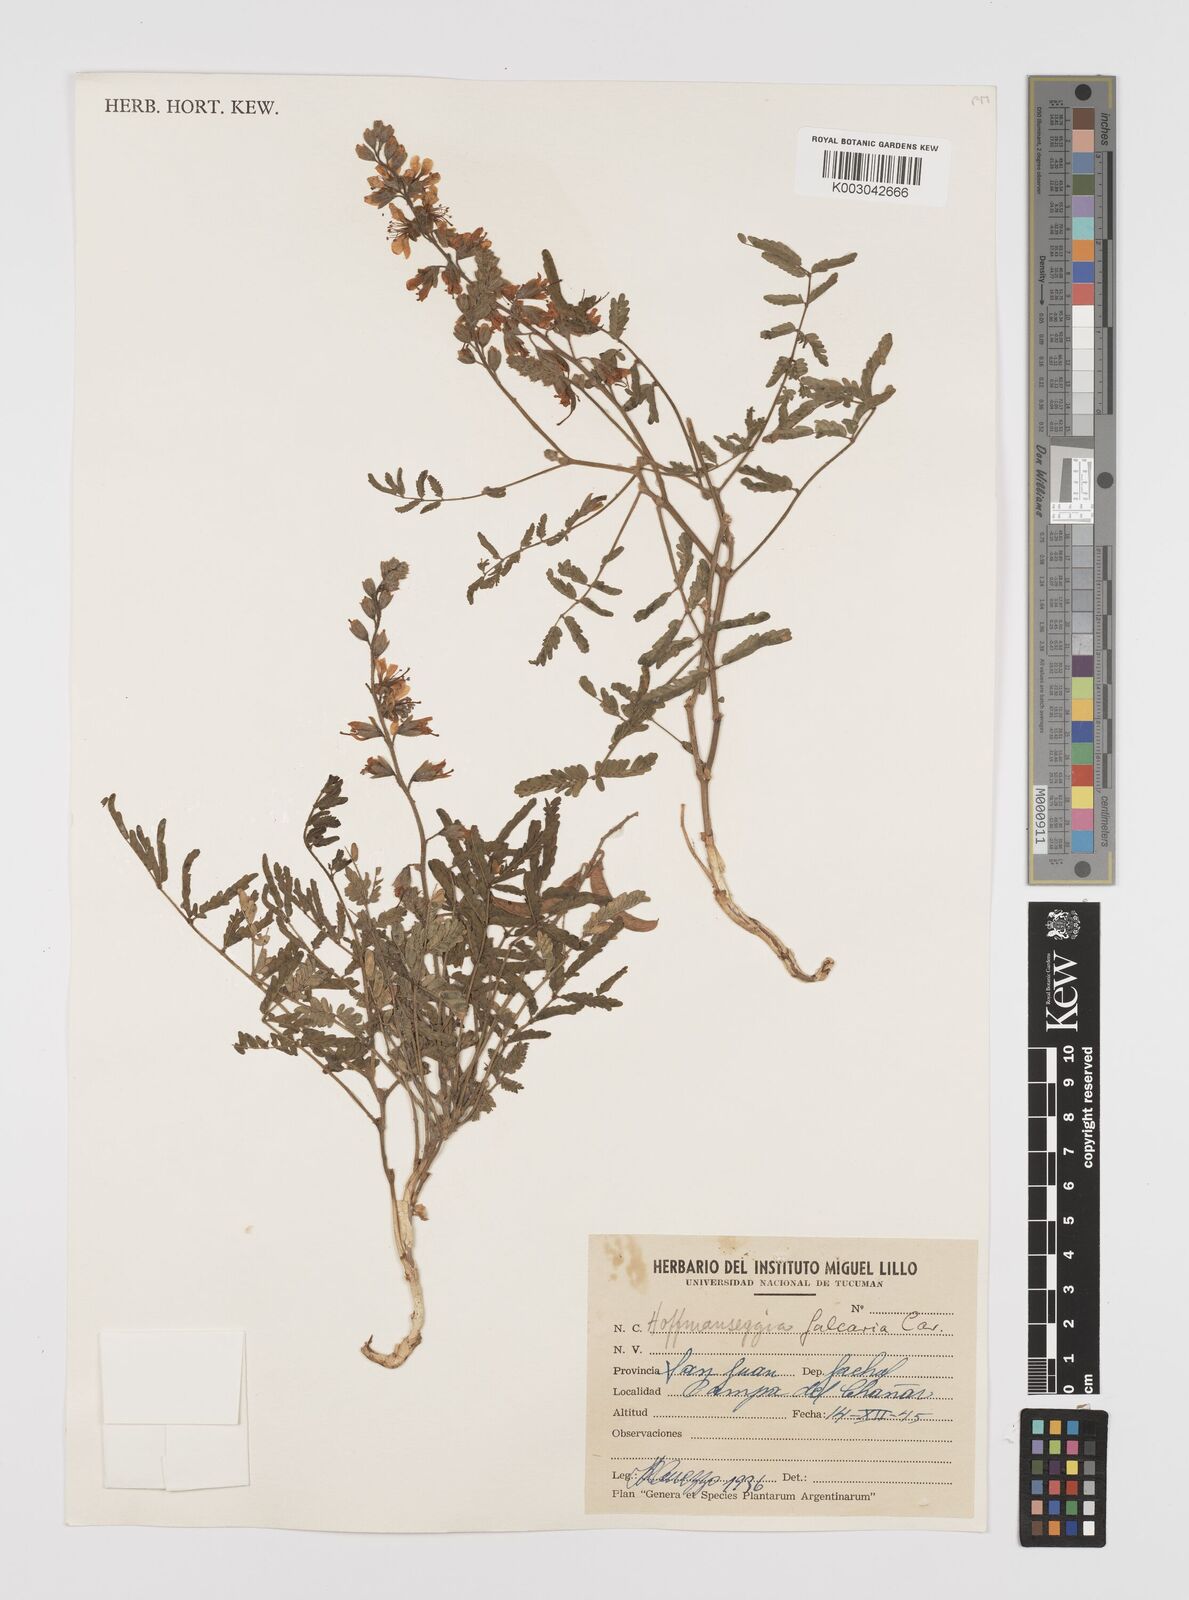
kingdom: Plantae
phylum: Tracheophyta
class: Magnoliopsida
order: Fabales
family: Fabaceae
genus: Hoffmannseggia
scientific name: Hoffmannseggia glauca
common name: Pignut
